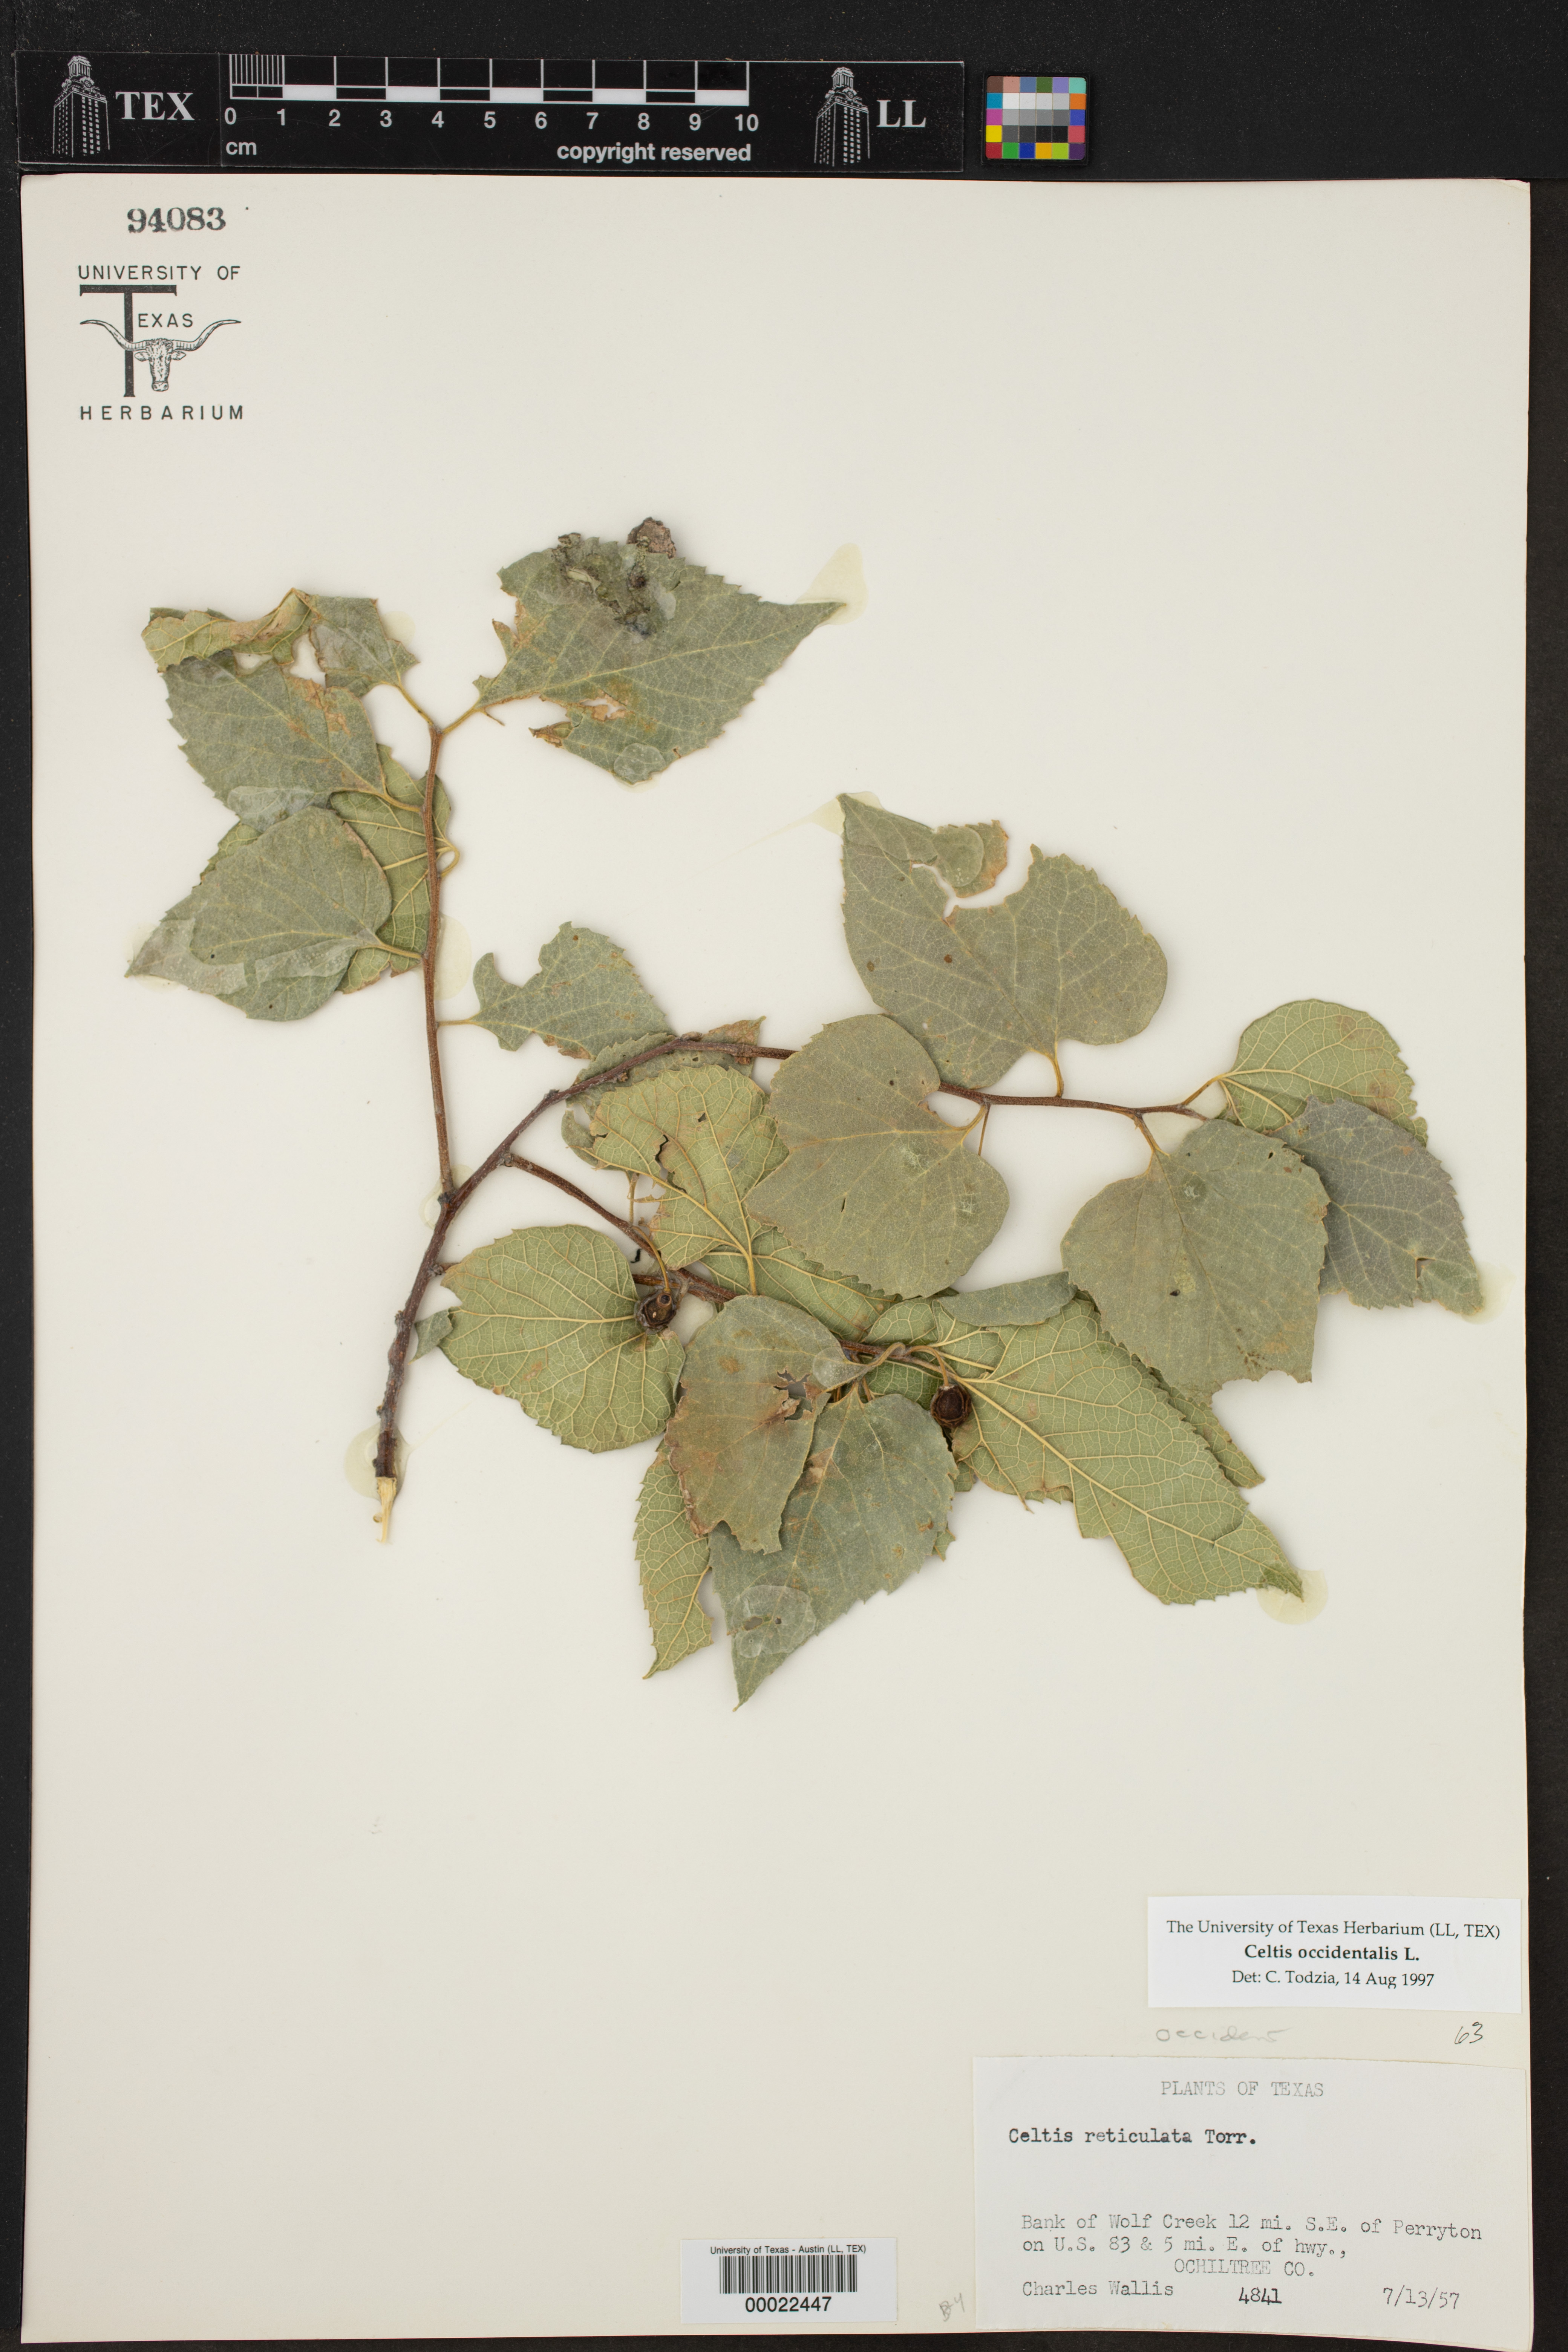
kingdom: Plantae
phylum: Tracheophyta
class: Magnoliopsida
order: Rosales
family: Cannabaceae
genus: Celtis
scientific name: Celtis occidentalis
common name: Common hackberry
